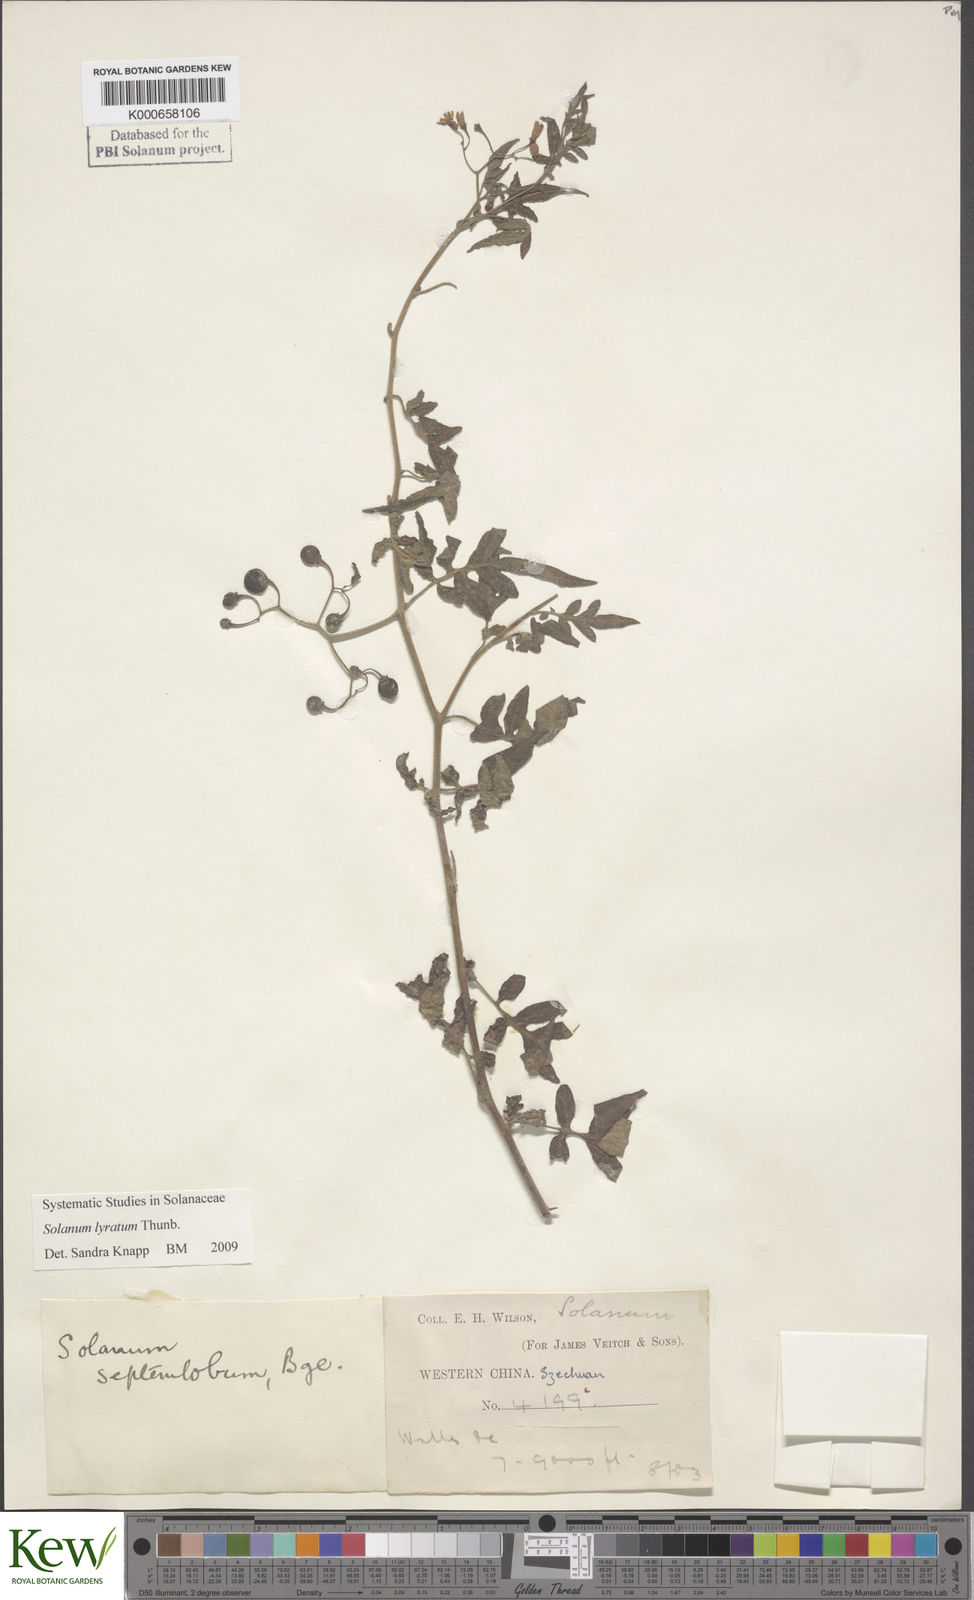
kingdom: Plantae
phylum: Tracheophyta
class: Magnoliopsida
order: Solanales
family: Solanaceae
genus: Solanum
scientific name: Solanum septemlobum
